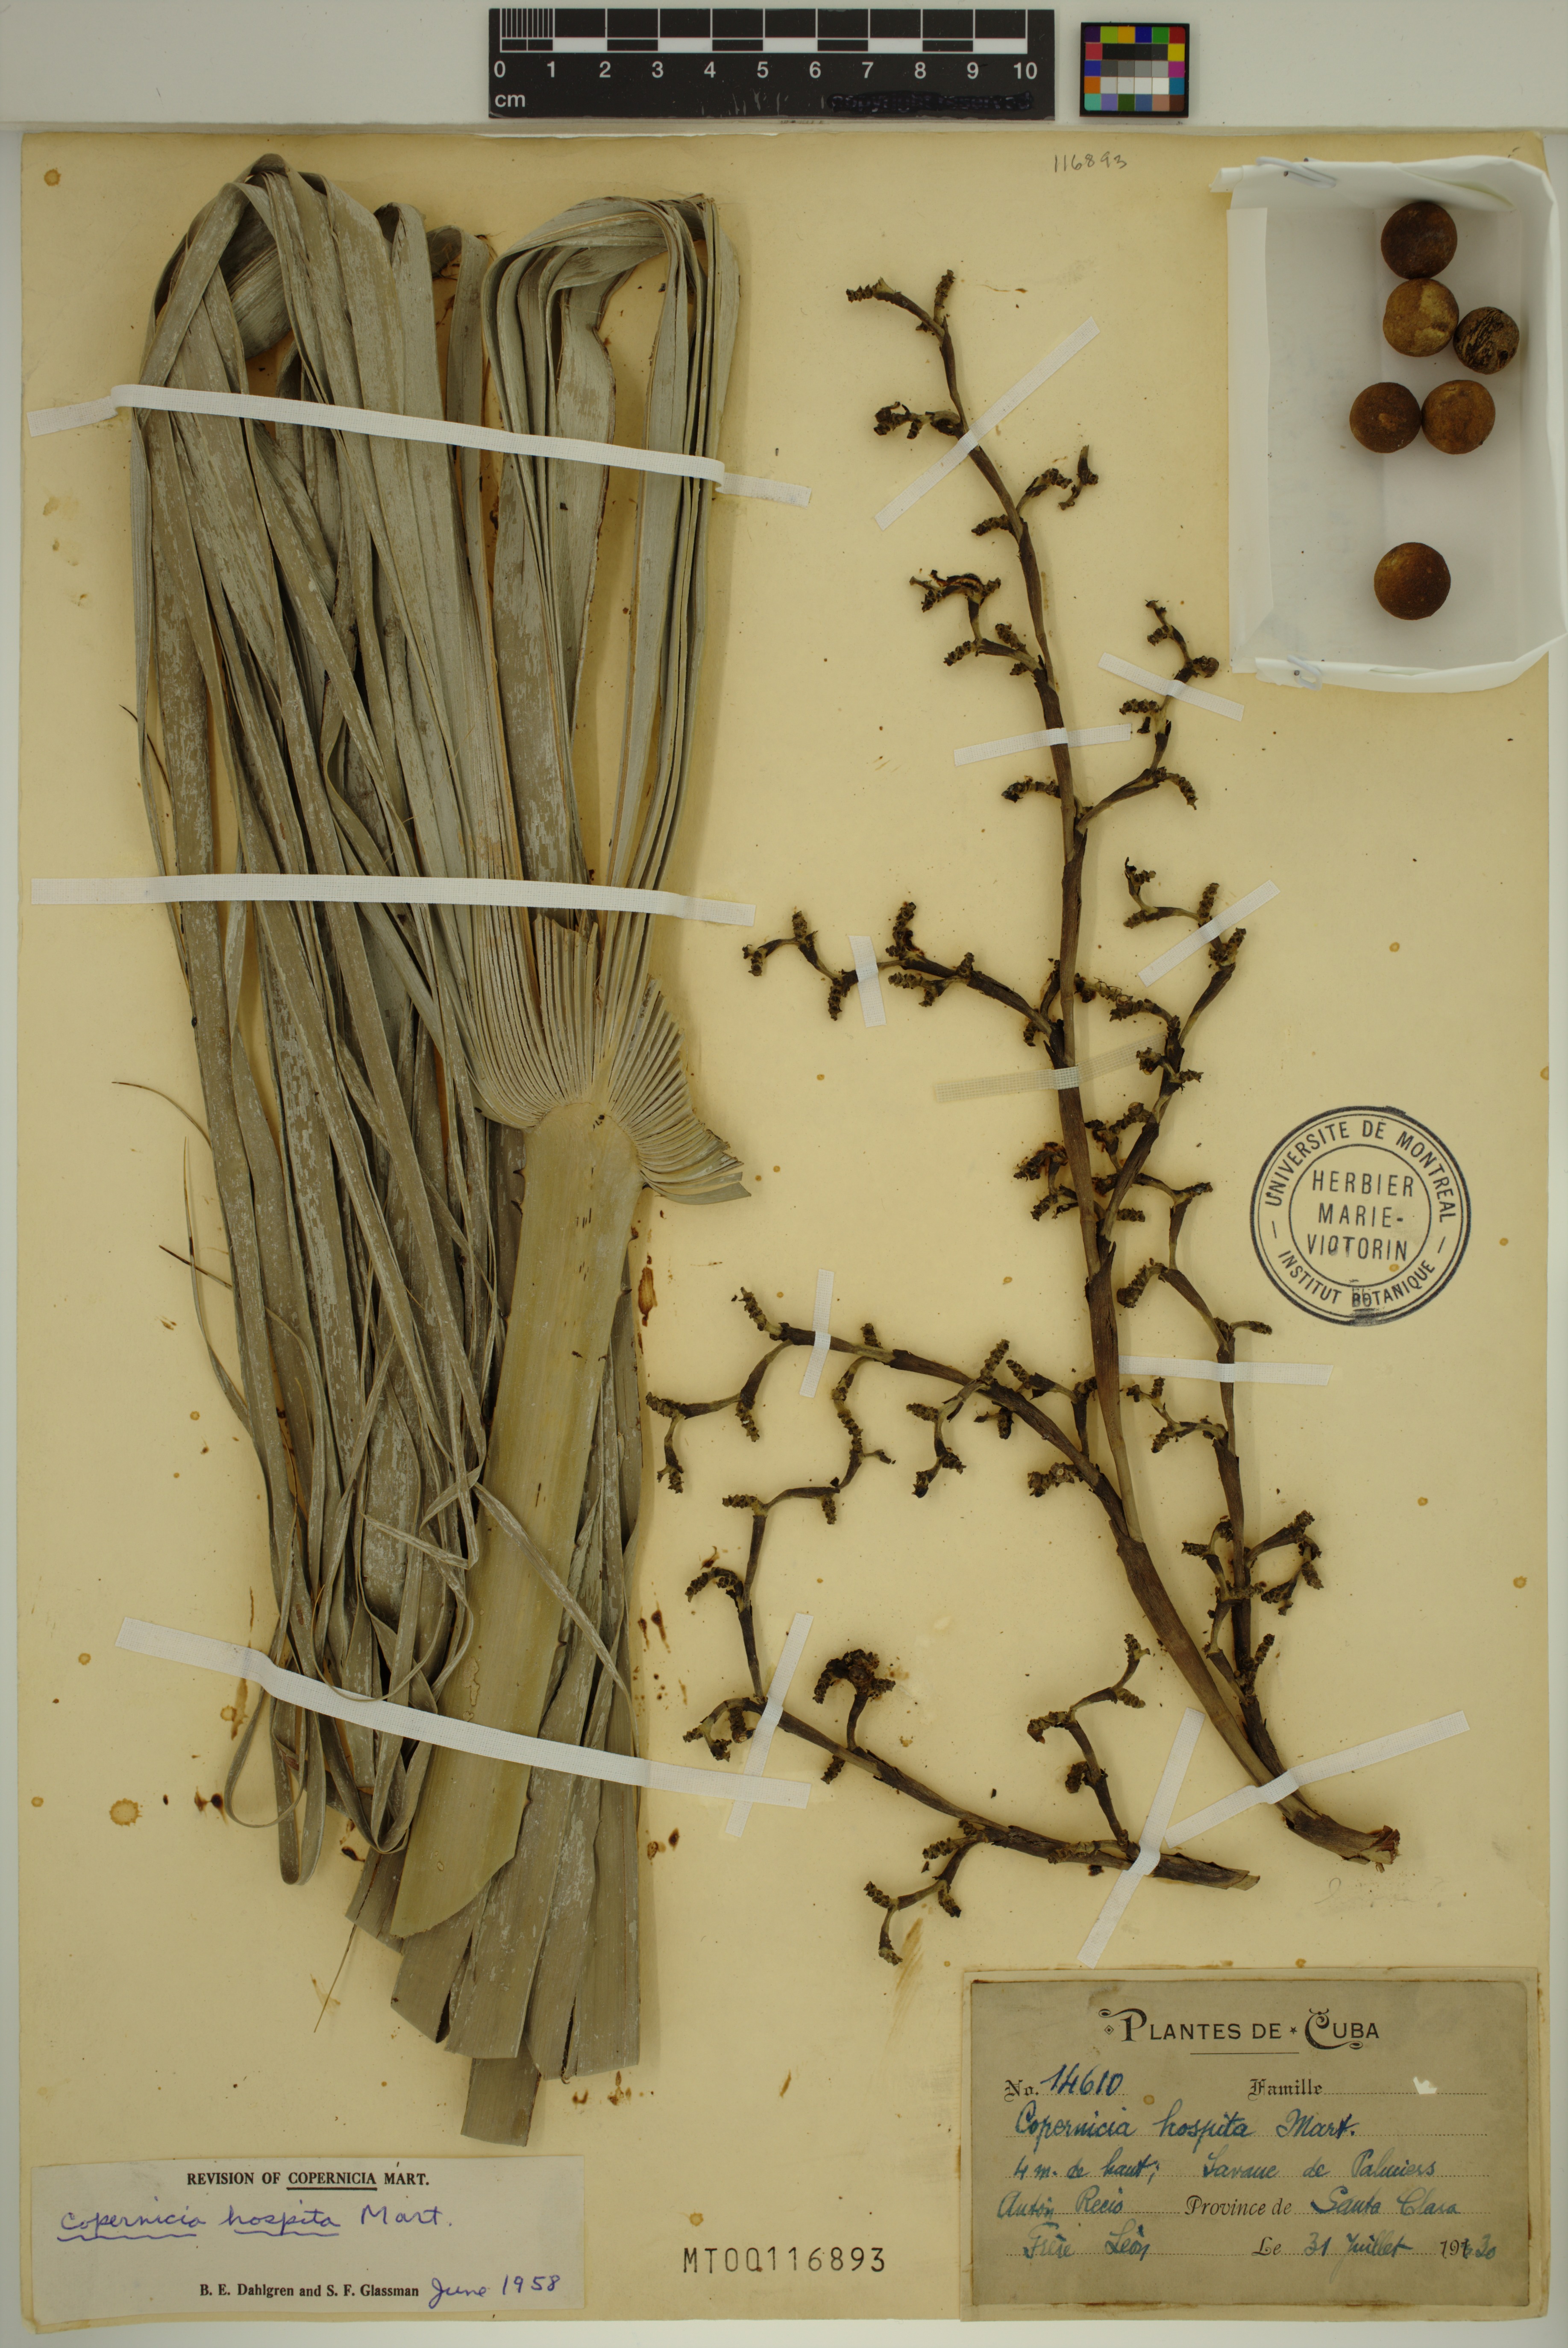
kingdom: Plantae
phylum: Tracheophyta
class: Liliopsida
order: Arecales
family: Arecaceae
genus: Copernicia
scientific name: Copernicia hospita
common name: Cubam palm
